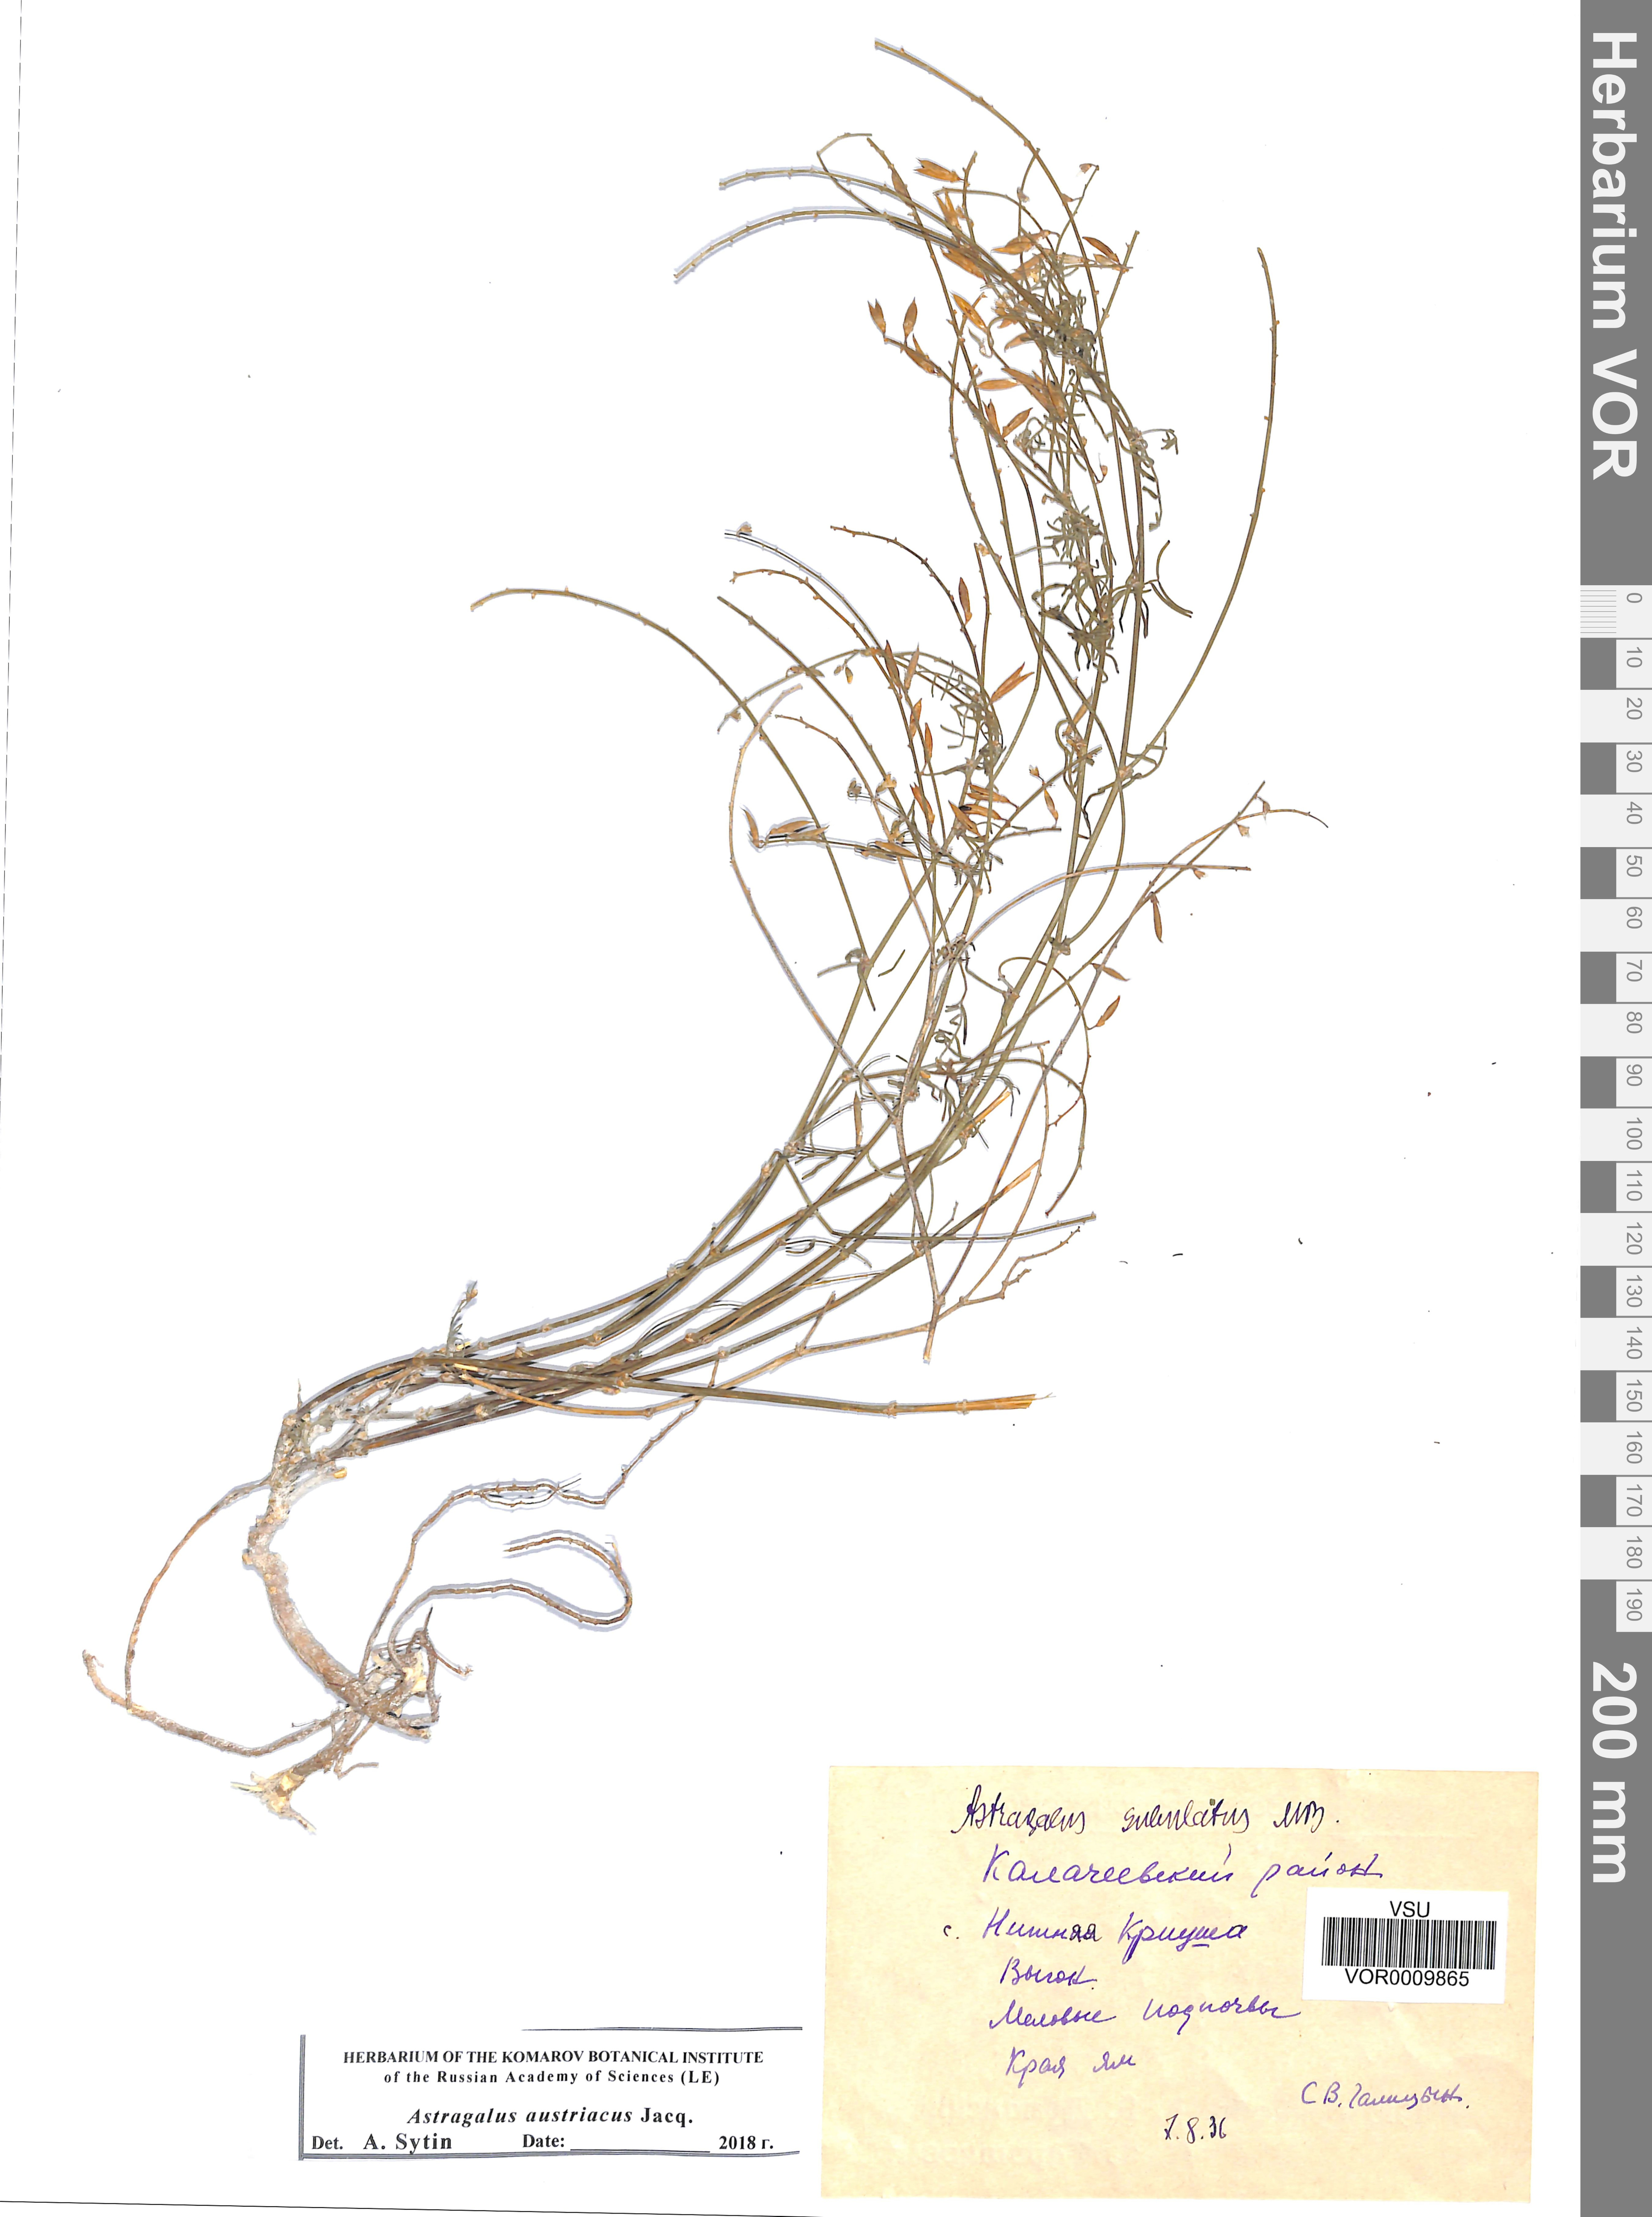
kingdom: Plantae
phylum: Tracheophyta
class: Magnoliopsida
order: Fabales
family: Fabaceae
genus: Astragalus
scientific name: Astragalus austriacus
